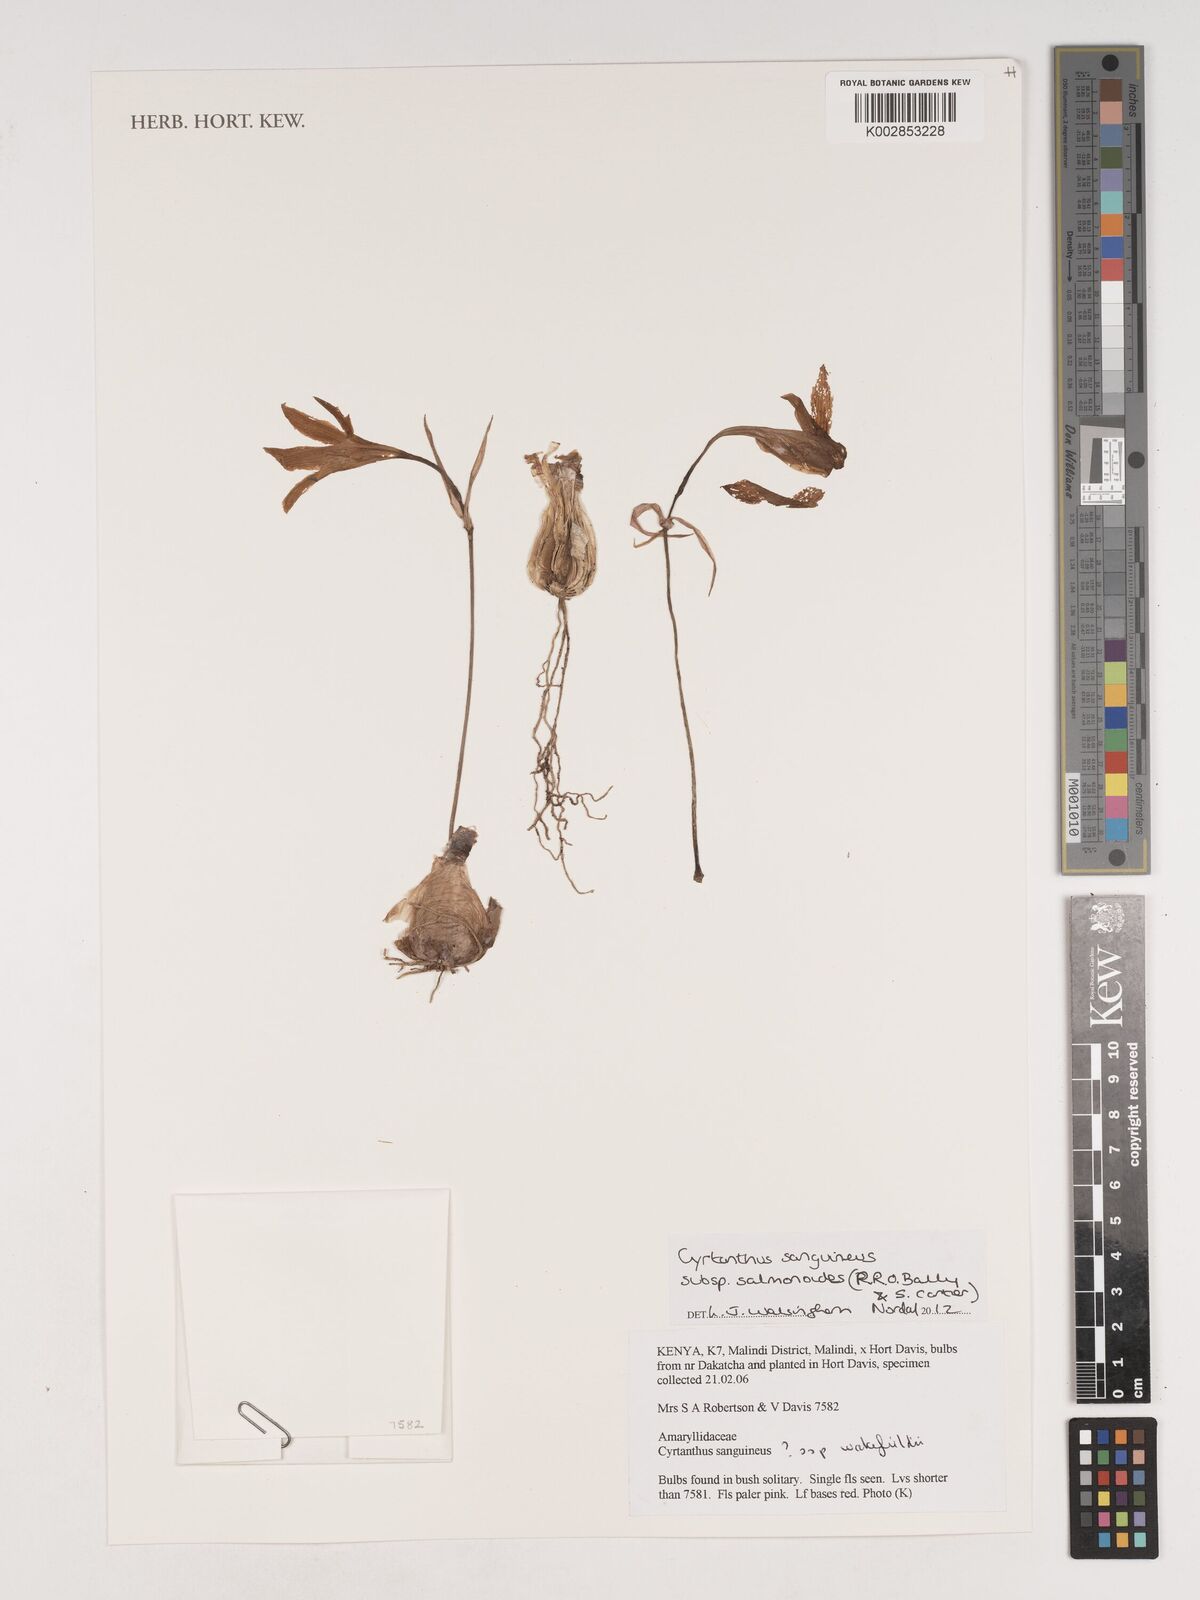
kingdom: Plantae
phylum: Tracheophyta
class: Liliopsida
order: Asparagales
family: Amaryllidaceae
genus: Cyrtanthus
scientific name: Cyrtanthus sanguineus
